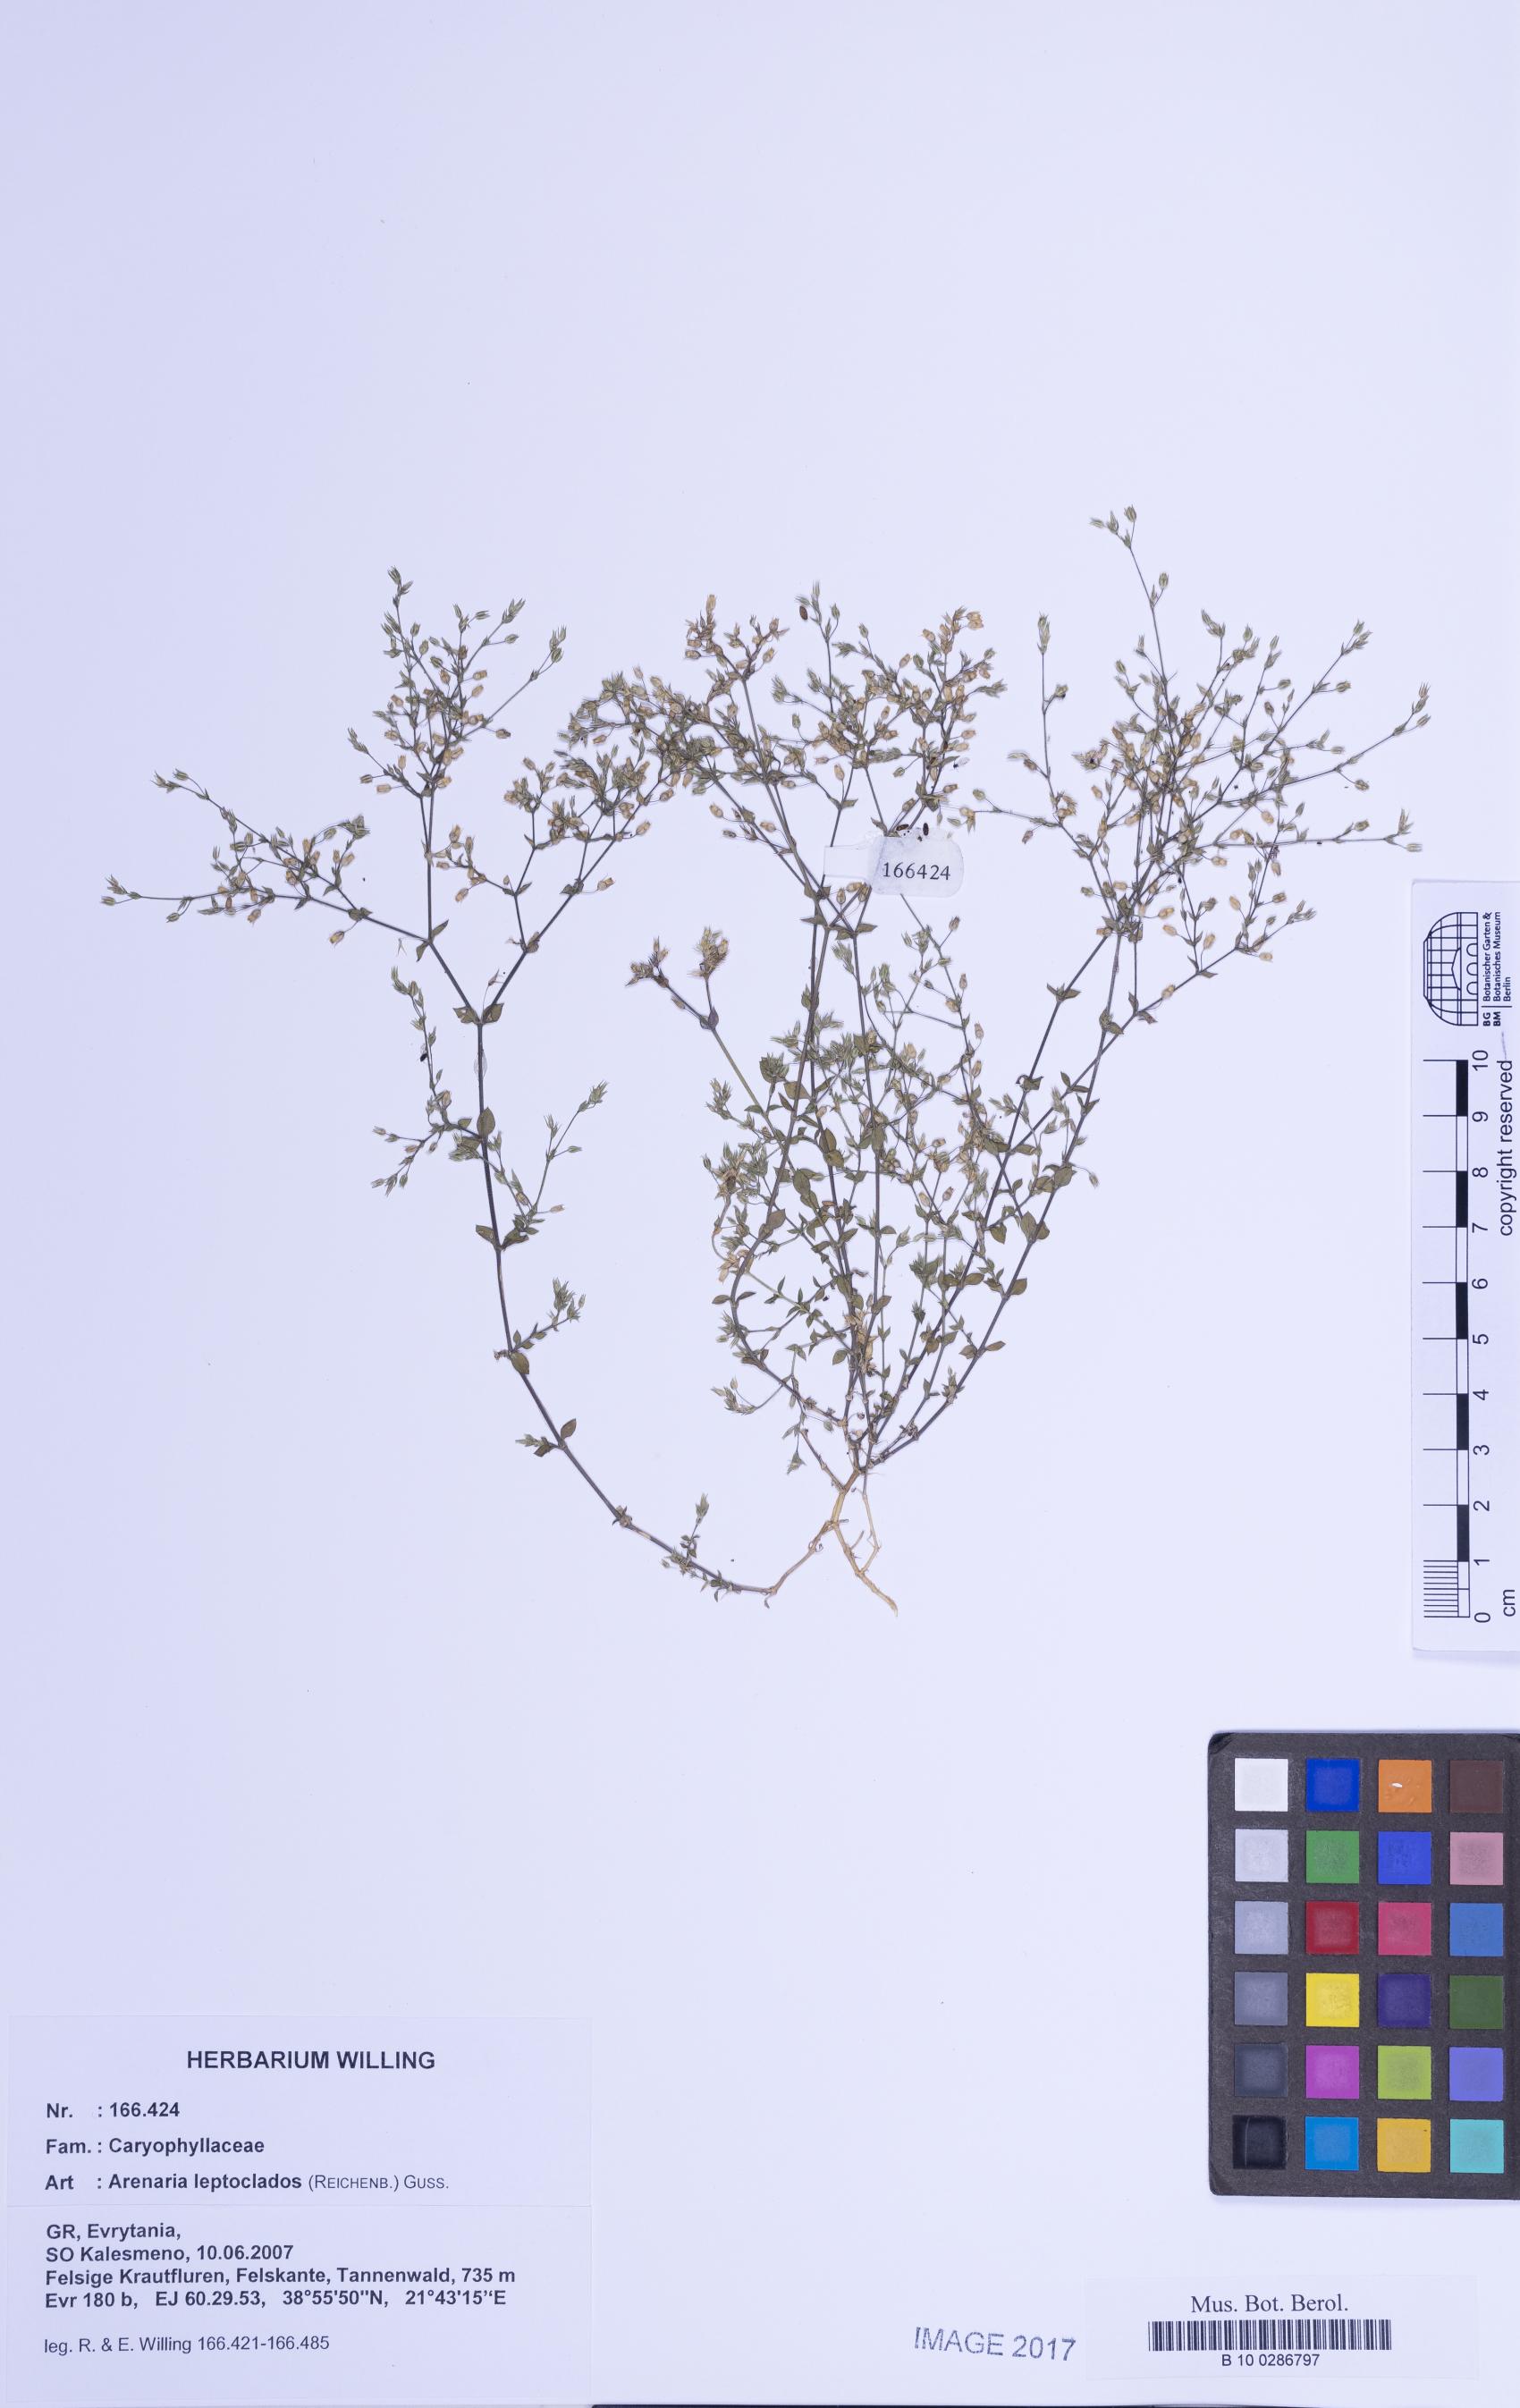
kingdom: Plantae
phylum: Tracheophyta
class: Magnoliopsida
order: Caryophyllales
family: Caryophyllaceae
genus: Arenaria
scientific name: Arenaria leptoclados
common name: Thyme-leaved sandwort
